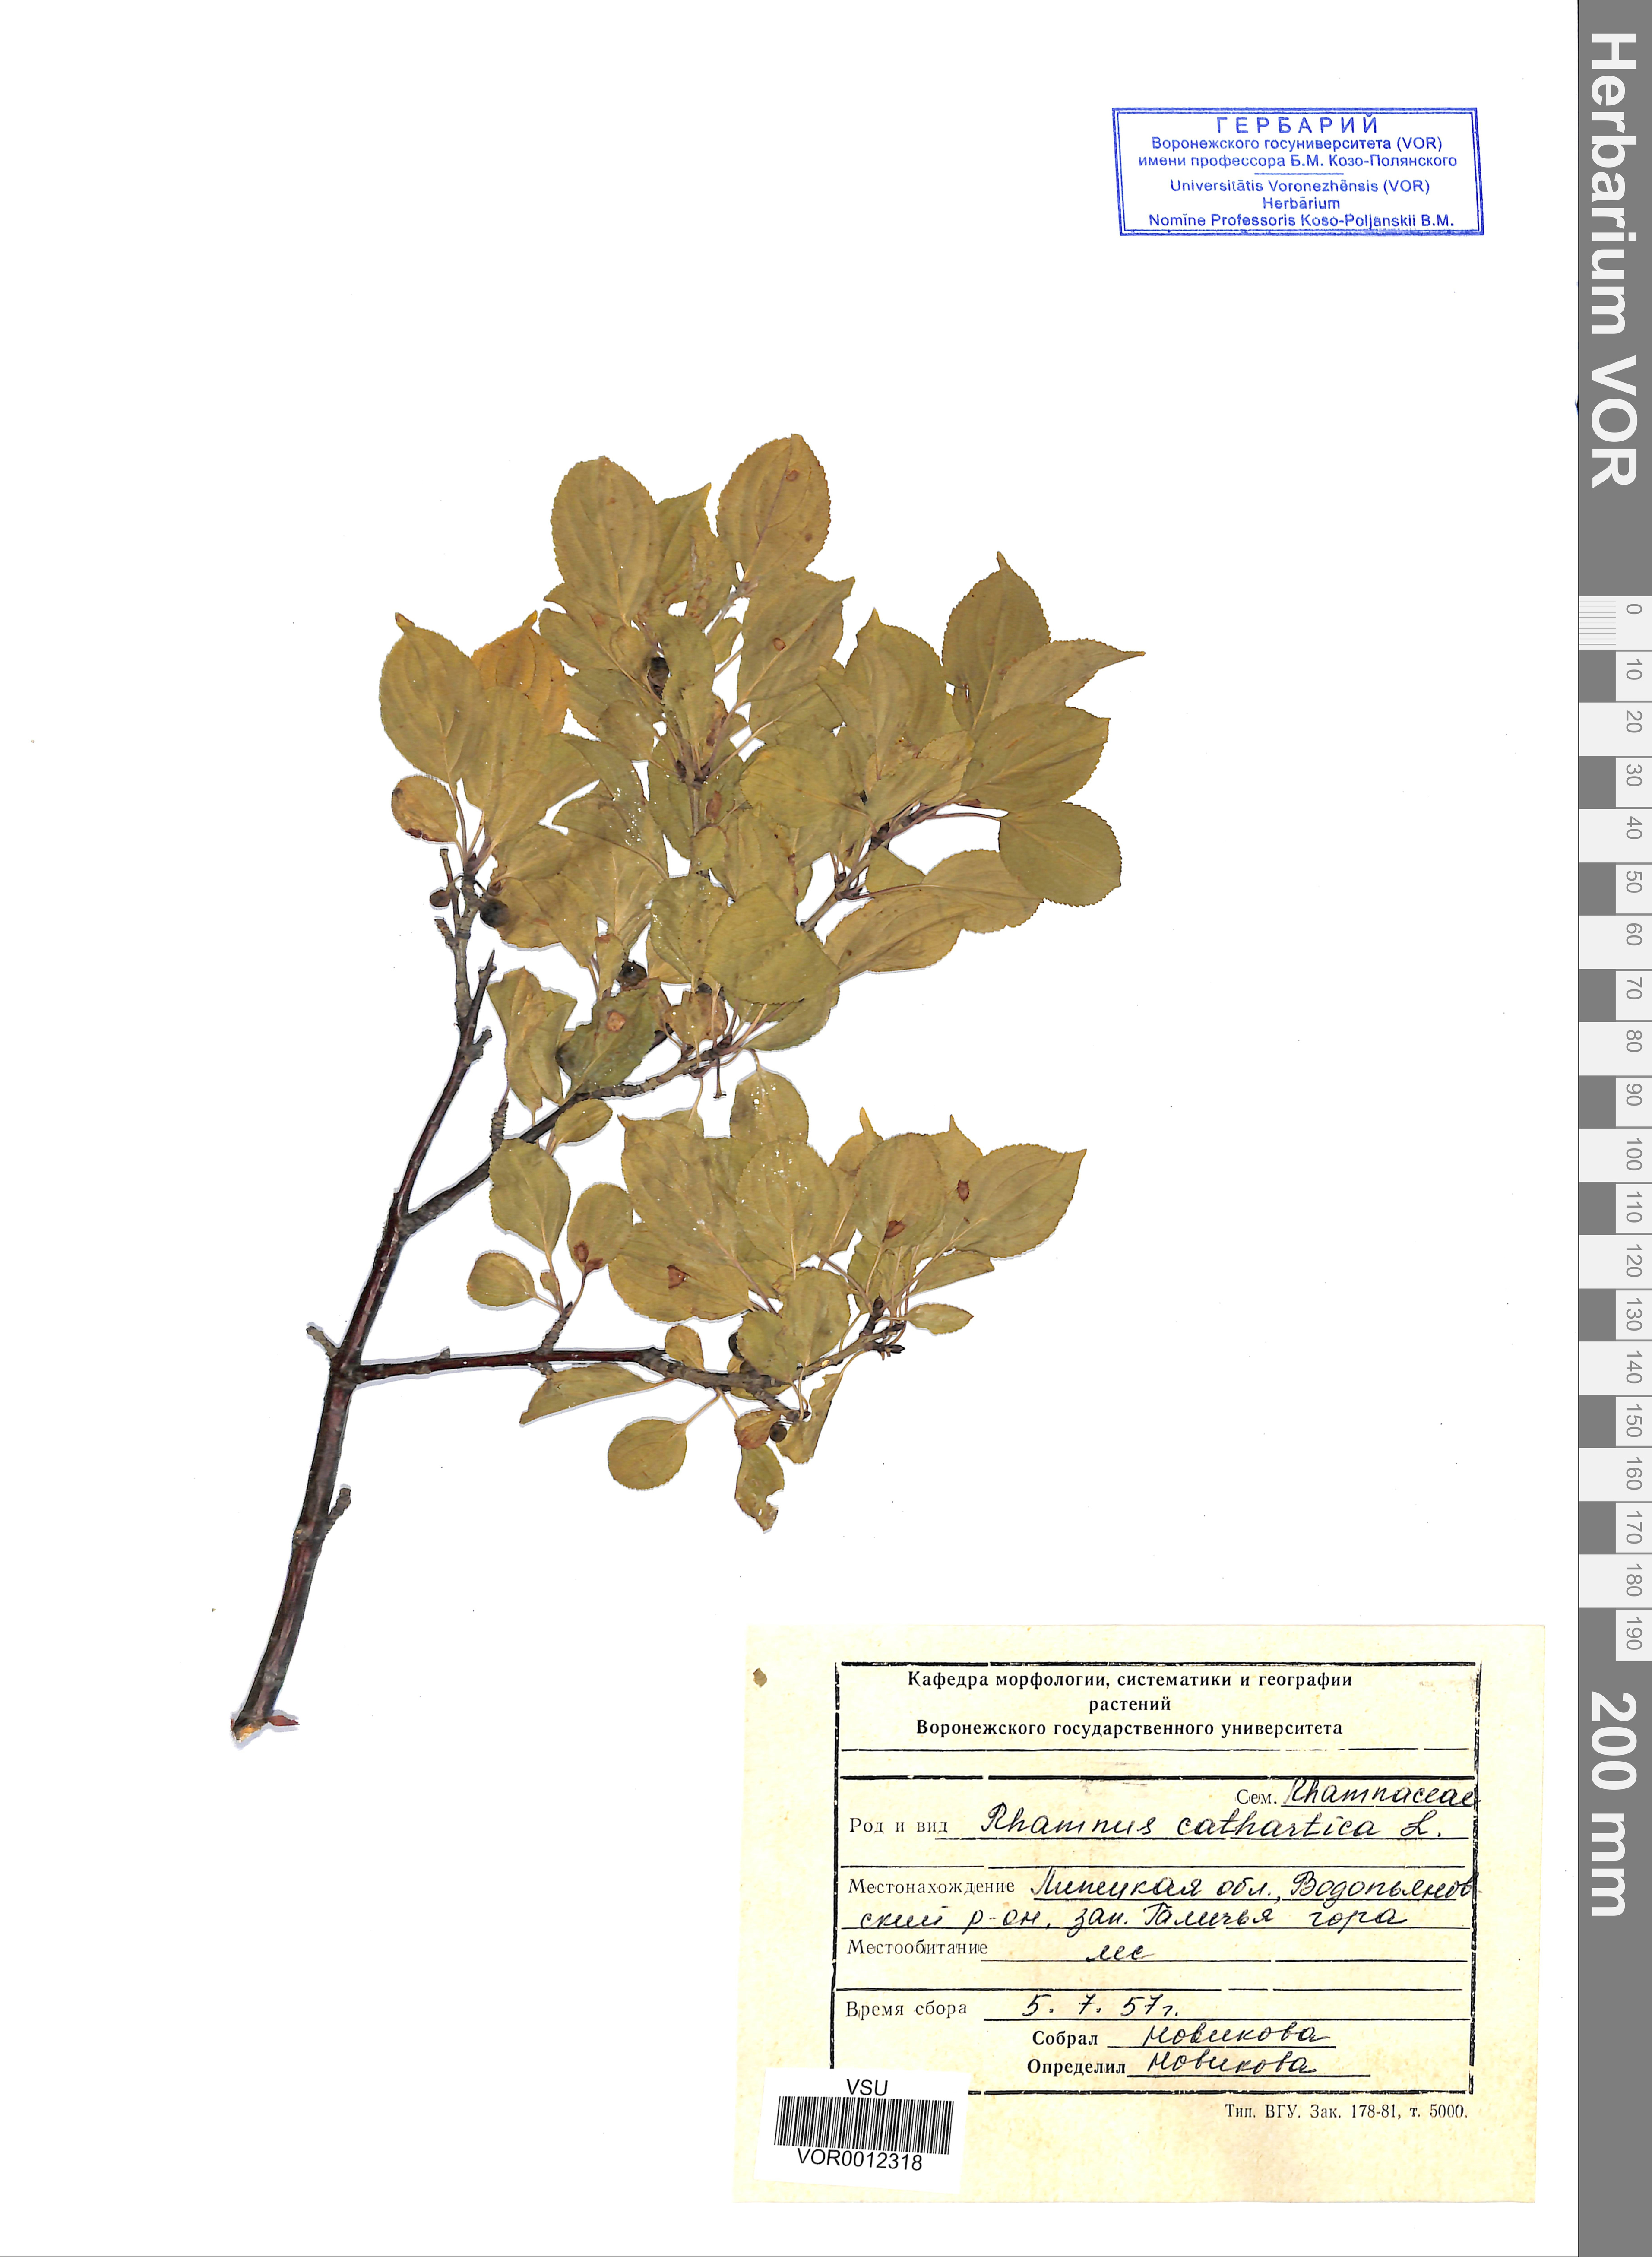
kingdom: Plantae
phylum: Tracheophyta
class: Magnoliopsida
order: Rosales
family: Rhamnaceae
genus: Rhamnus
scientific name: Rhamnus cathartica
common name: Common buckthorn
